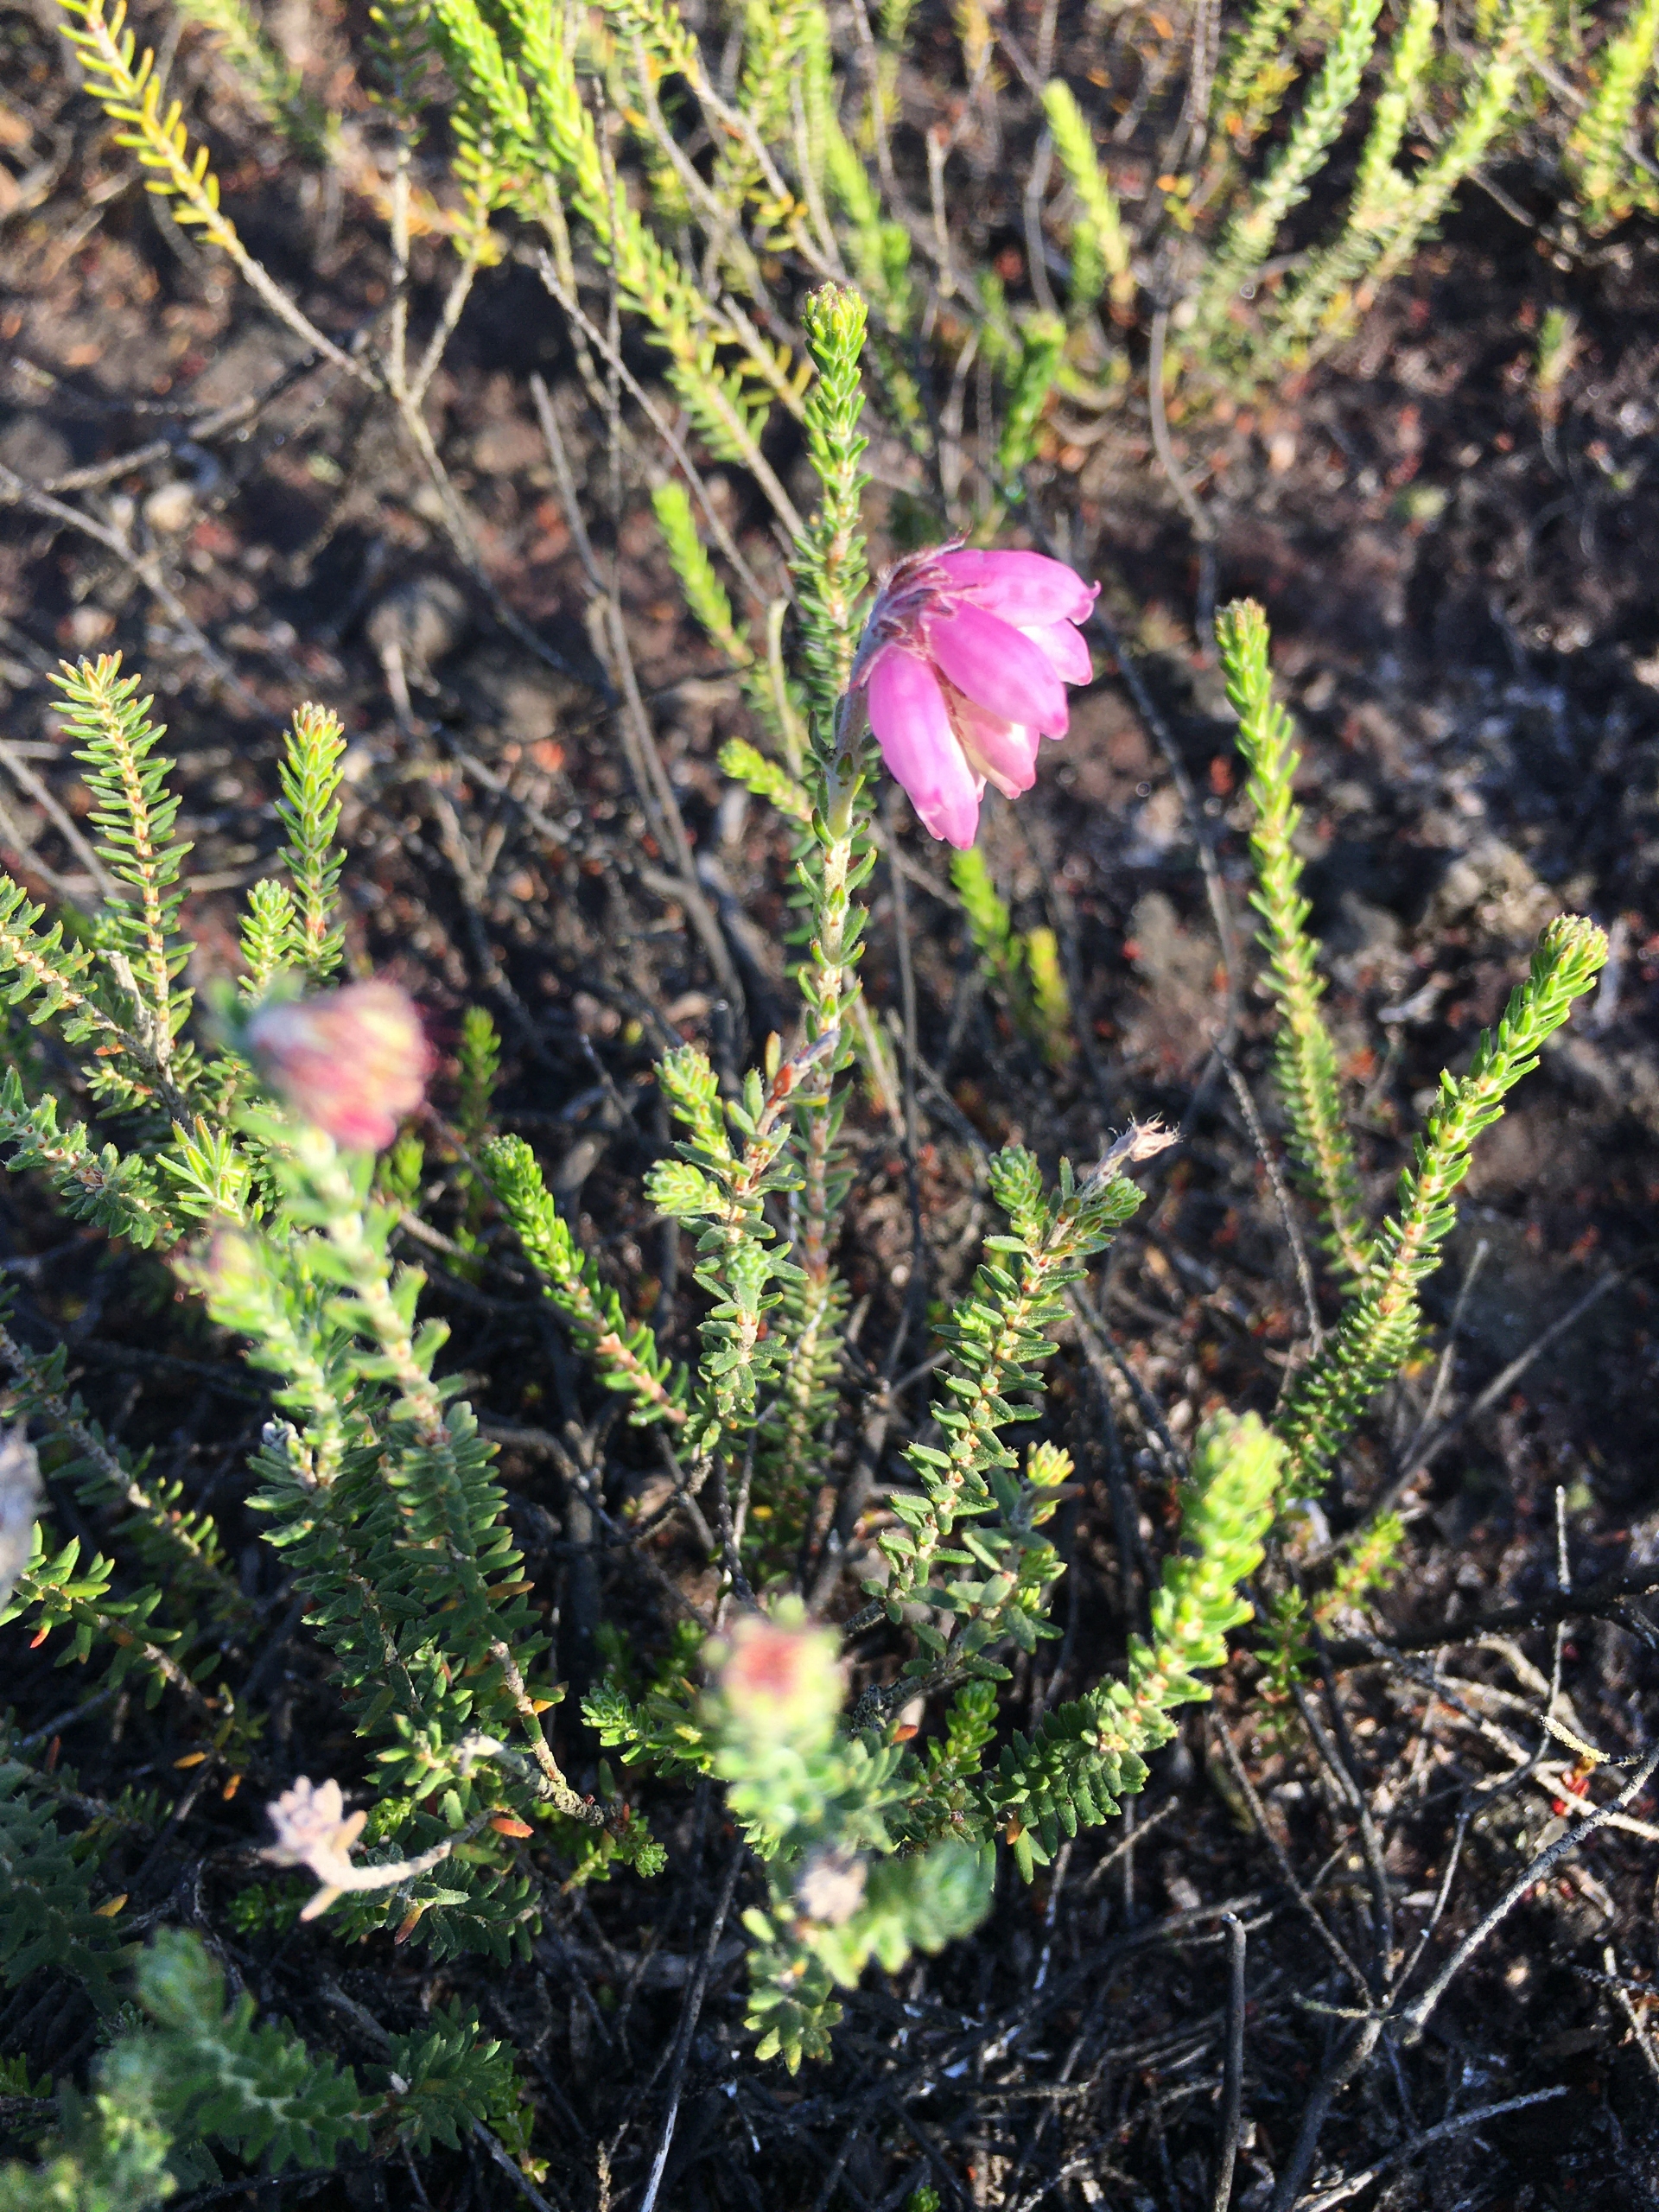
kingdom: Plantae
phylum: Tracheophyta
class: Magnoliopsida
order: Ericales
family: Ericaceae
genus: Erica
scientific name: Erica tetralix
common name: Klokkelyng
